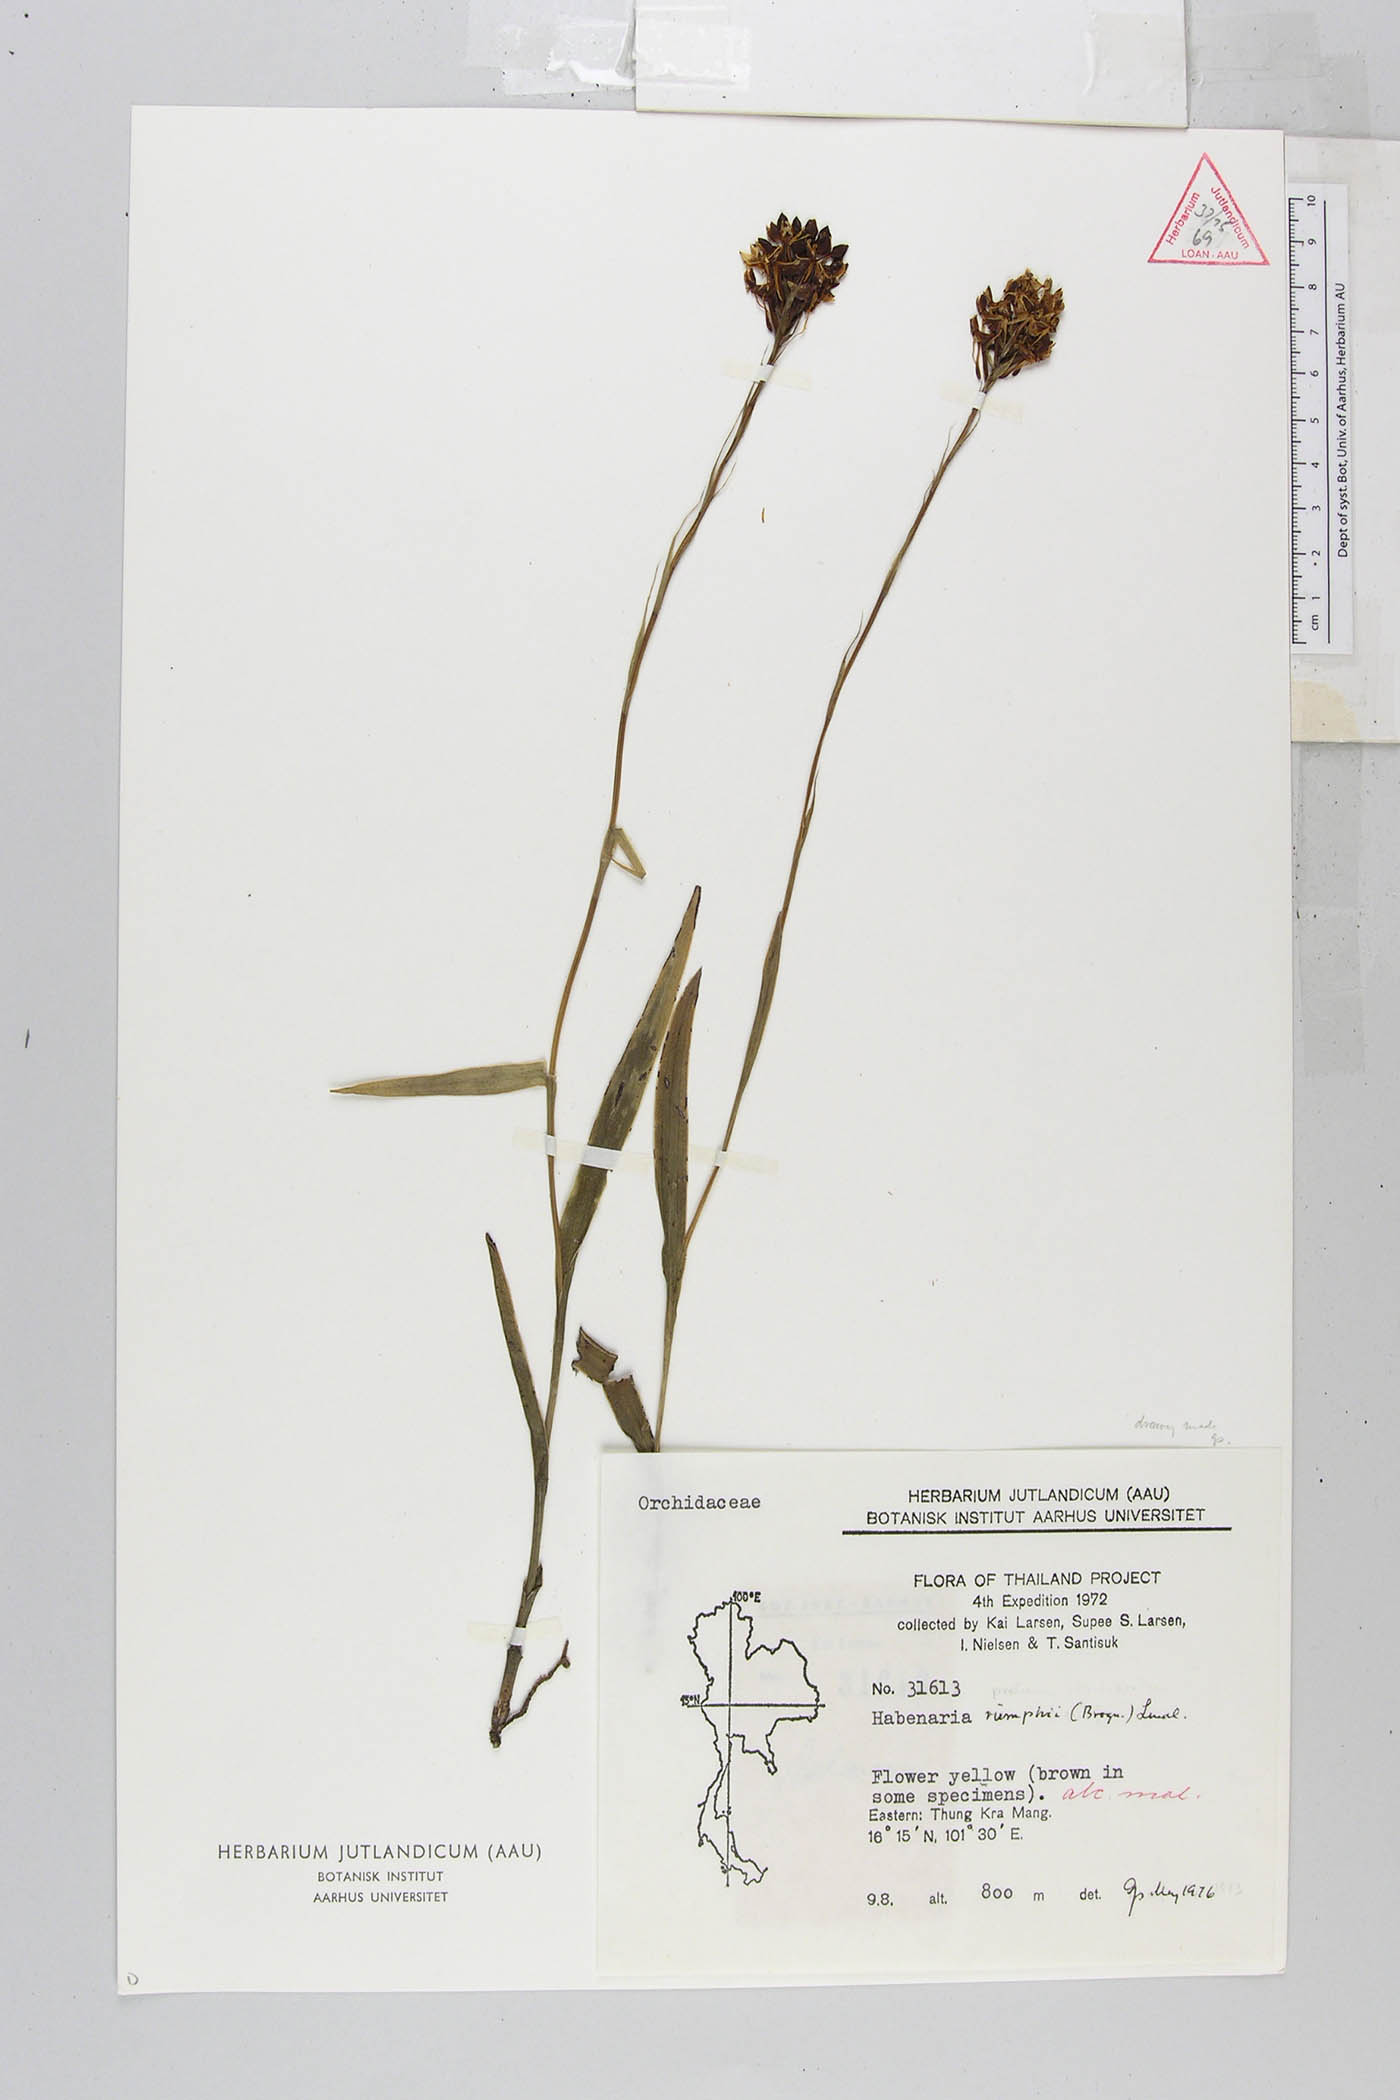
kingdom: Plantae
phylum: Tracheophyta
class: Liliopsida
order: Asparagales
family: Orchidaceae
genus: Habenaria
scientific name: Habenaria rumphii
